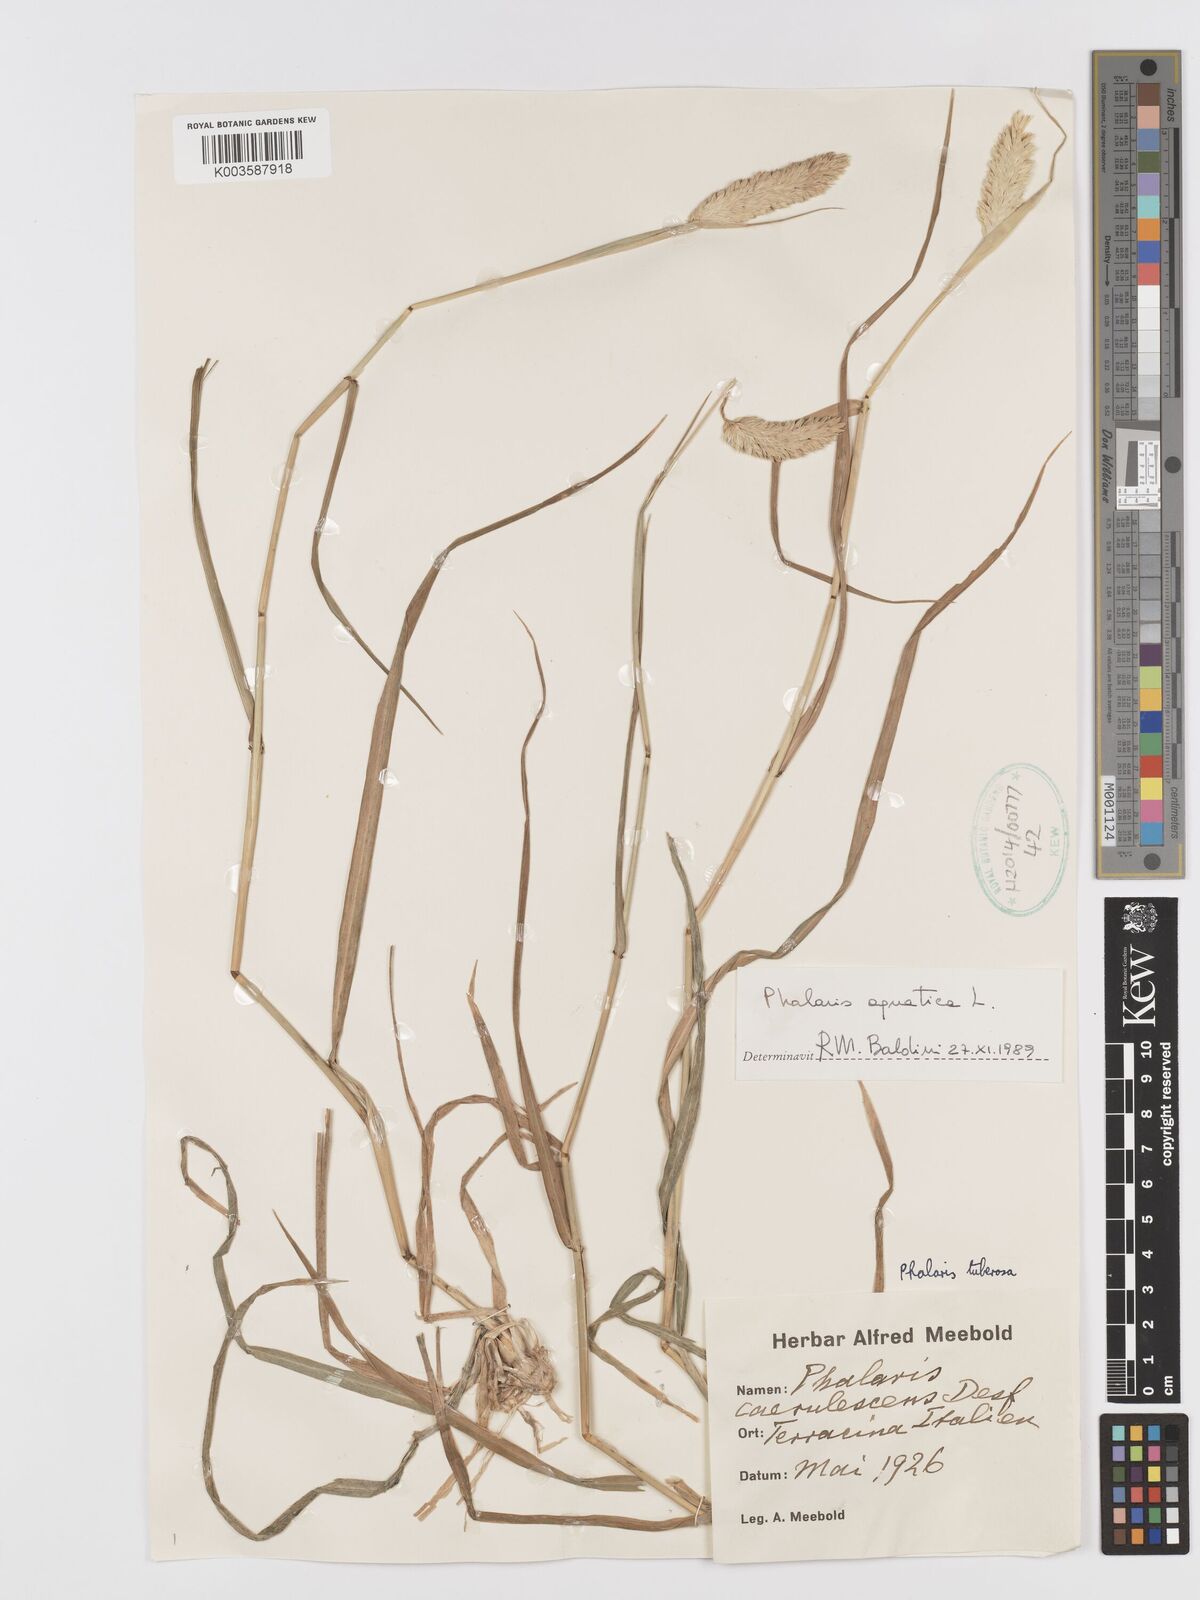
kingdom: Plantae
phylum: Tracheophyta
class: Liliopsida
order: Poales
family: Poaceae
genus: Phalaris
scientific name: Phalaris
